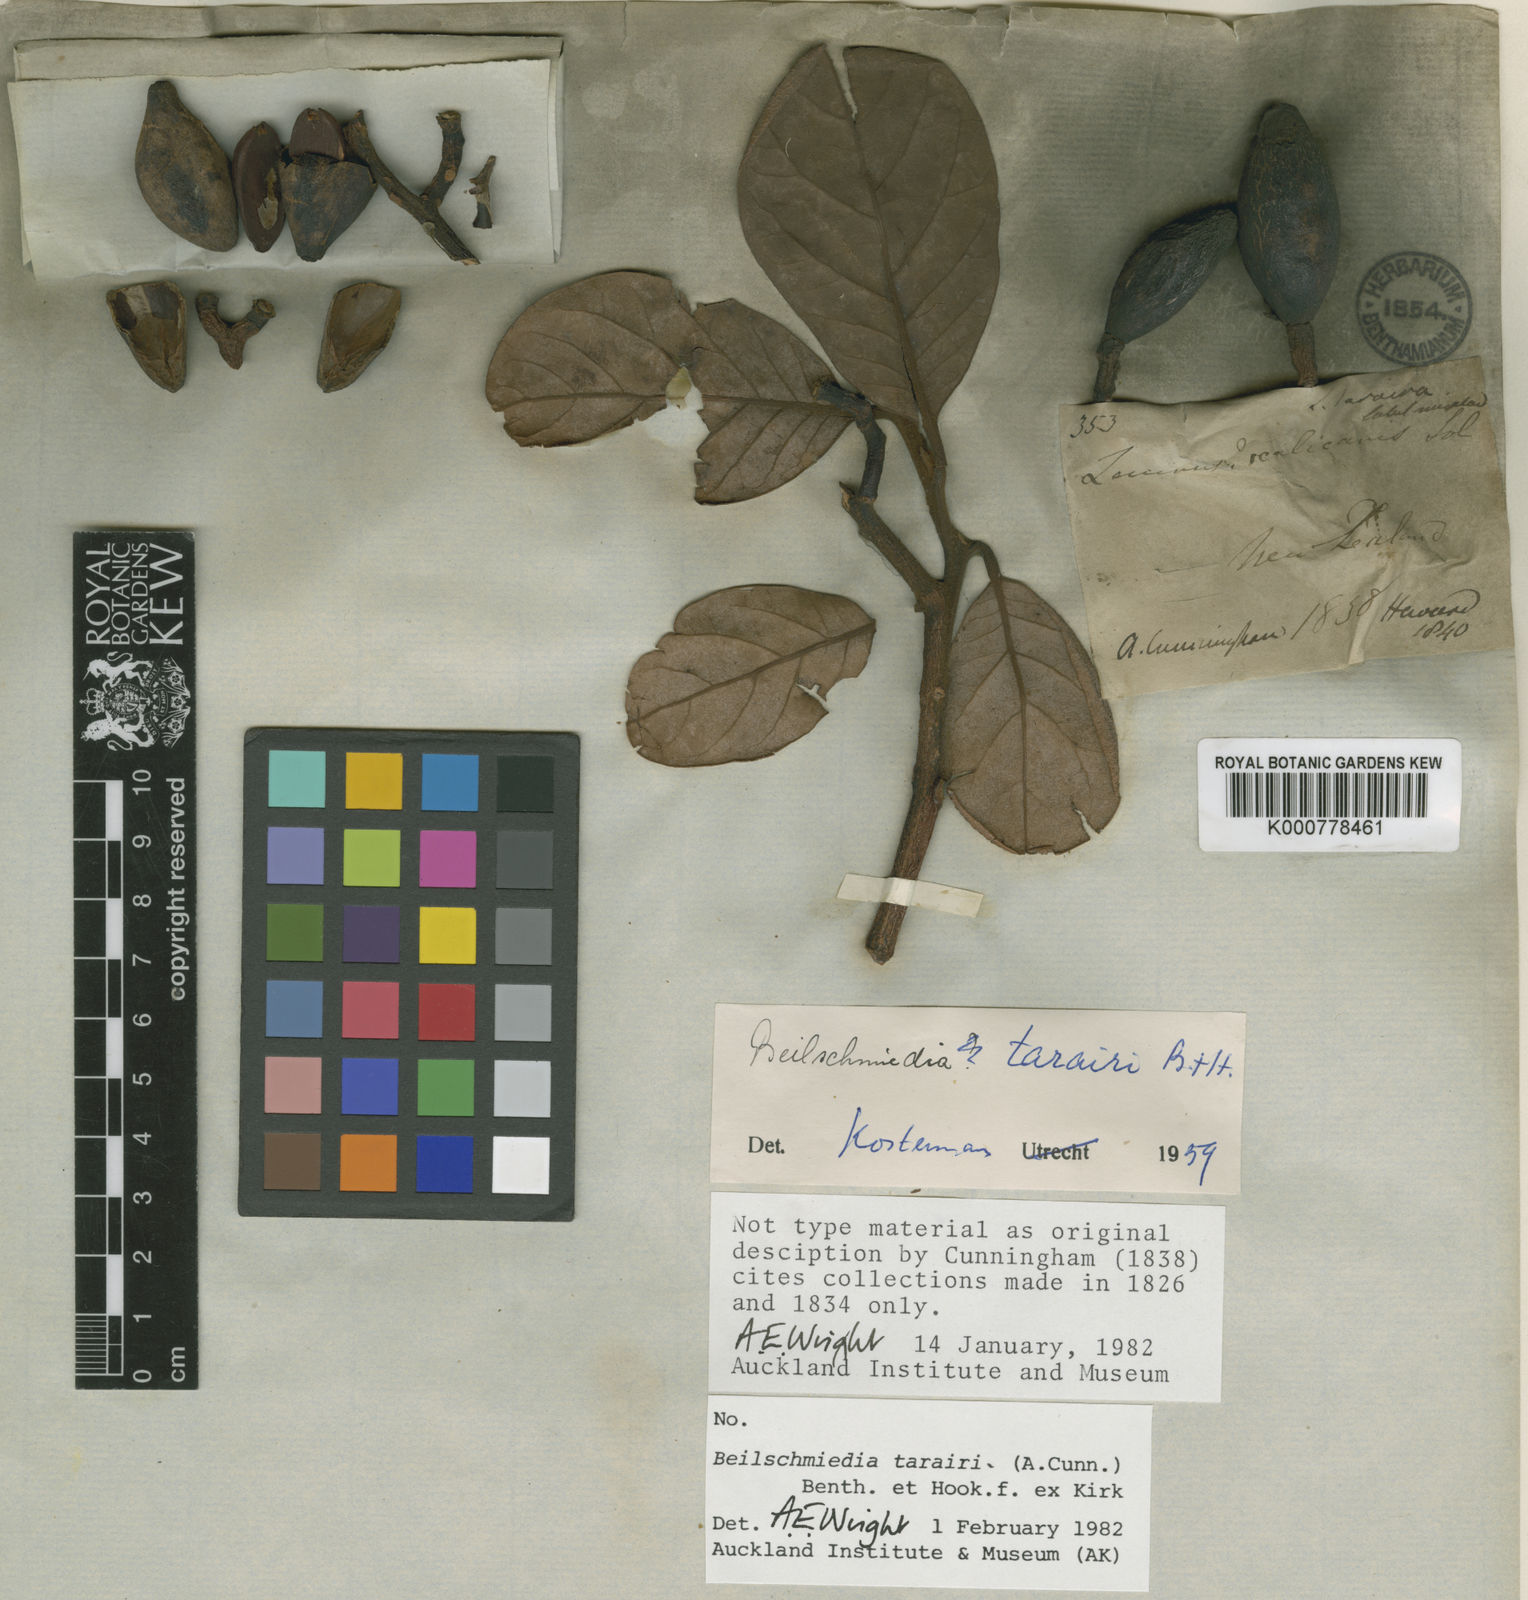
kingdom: Plantae
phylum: Tracheophyta
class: Magnoliopsida
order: Laurales
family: Lauraceae
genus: Beilschmiedia
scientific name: Beilschmiedia tarairi
